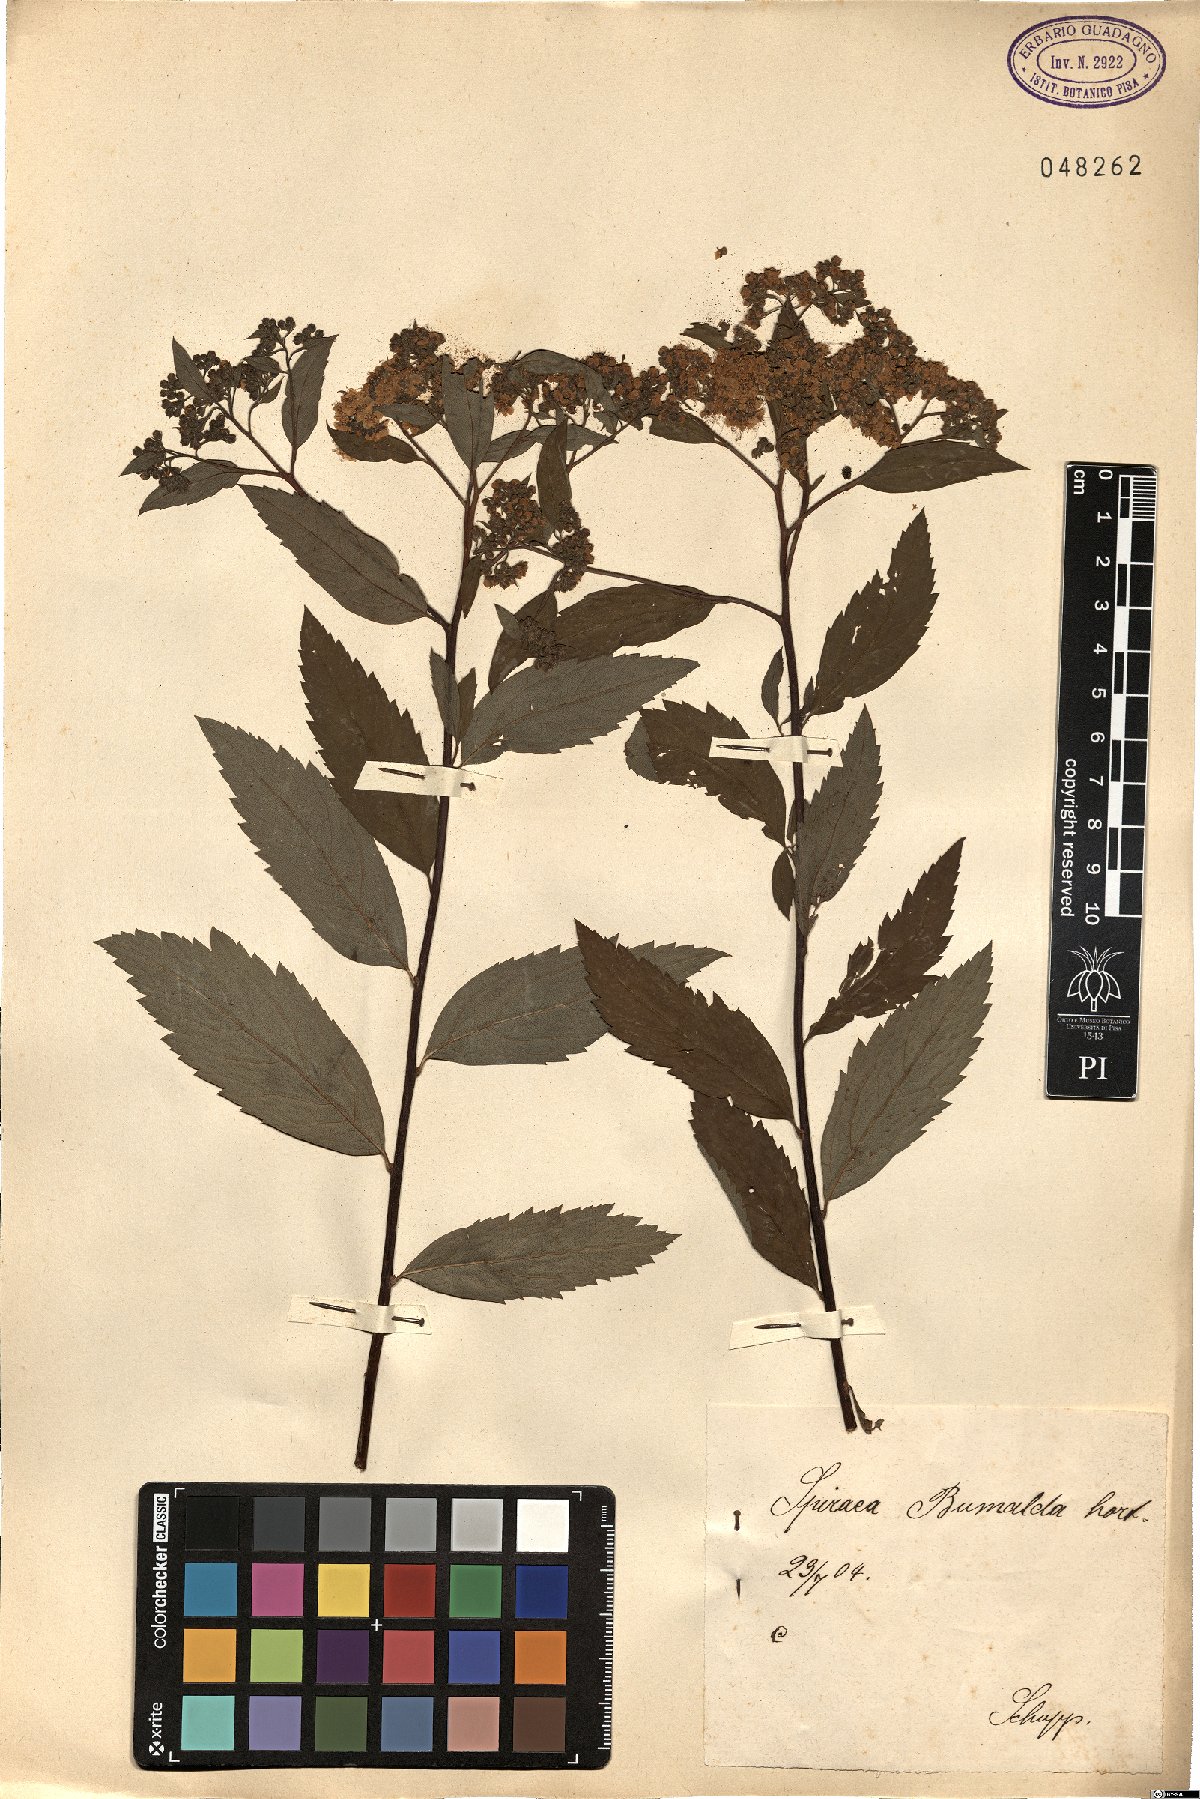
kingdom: Plantae
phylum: Tracheophyta
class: Magnoliopsida
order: Rosales
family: Rosaceae
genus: Spiraea
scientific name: Spiraea bumalda
